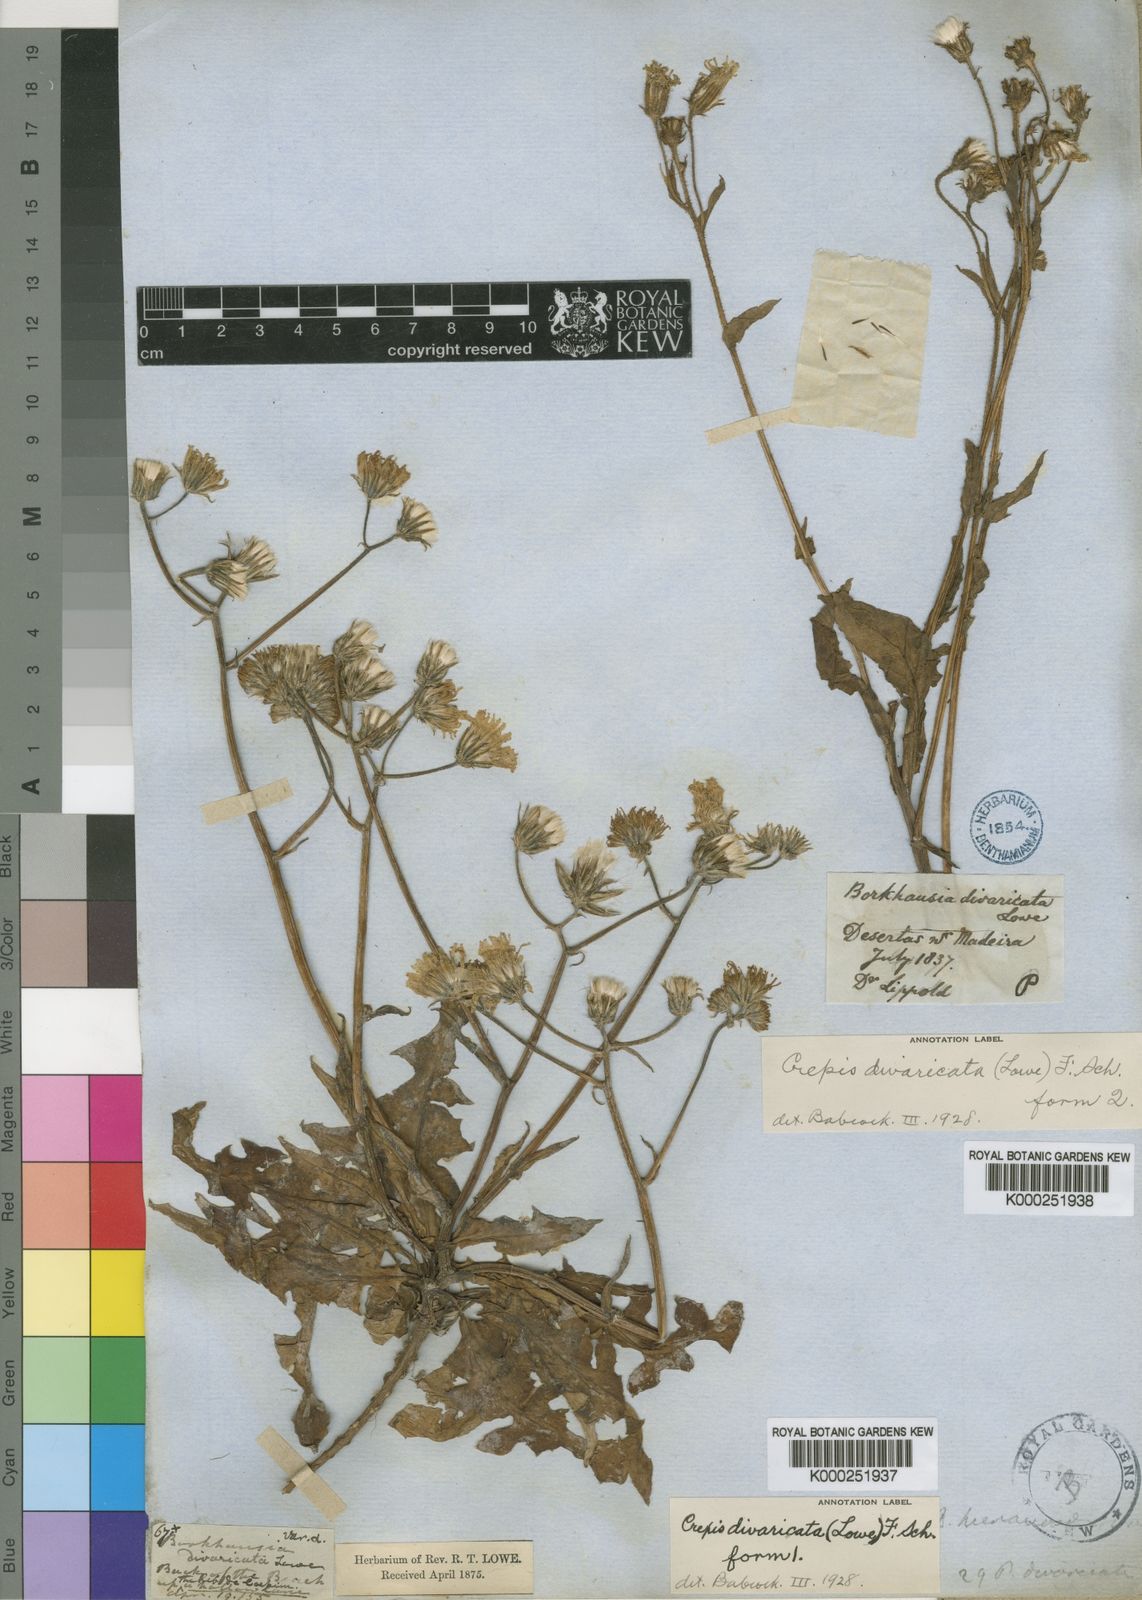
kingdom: Plantae
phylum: Tracheophyta
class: Magnoliopsida
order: Asterales
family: Asteraceae
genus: Crepis
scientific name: Crepis divaricata
